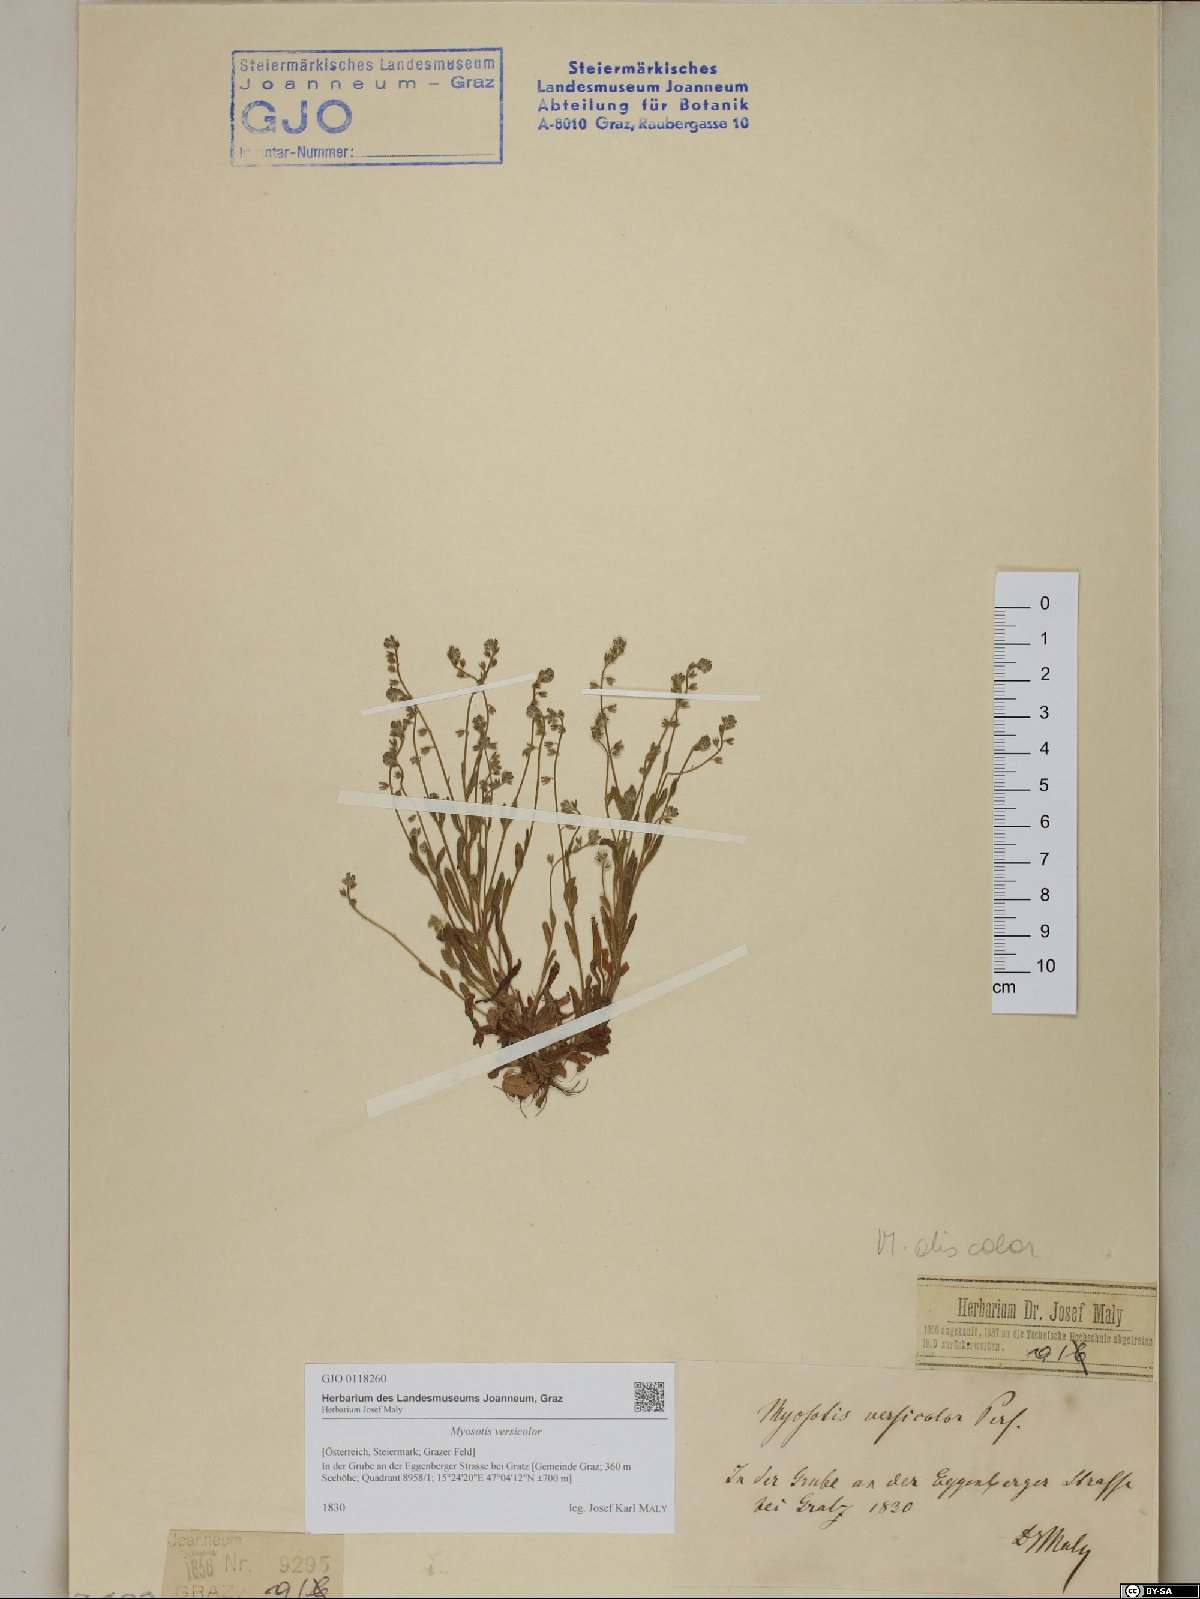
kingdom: Plantae
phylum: Tracheophyta
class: Magnoliopsida
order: Boraginales
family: Boraginaceae
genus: Myosotis
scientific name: Myosotis discolor
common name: Changing forget-me-not
